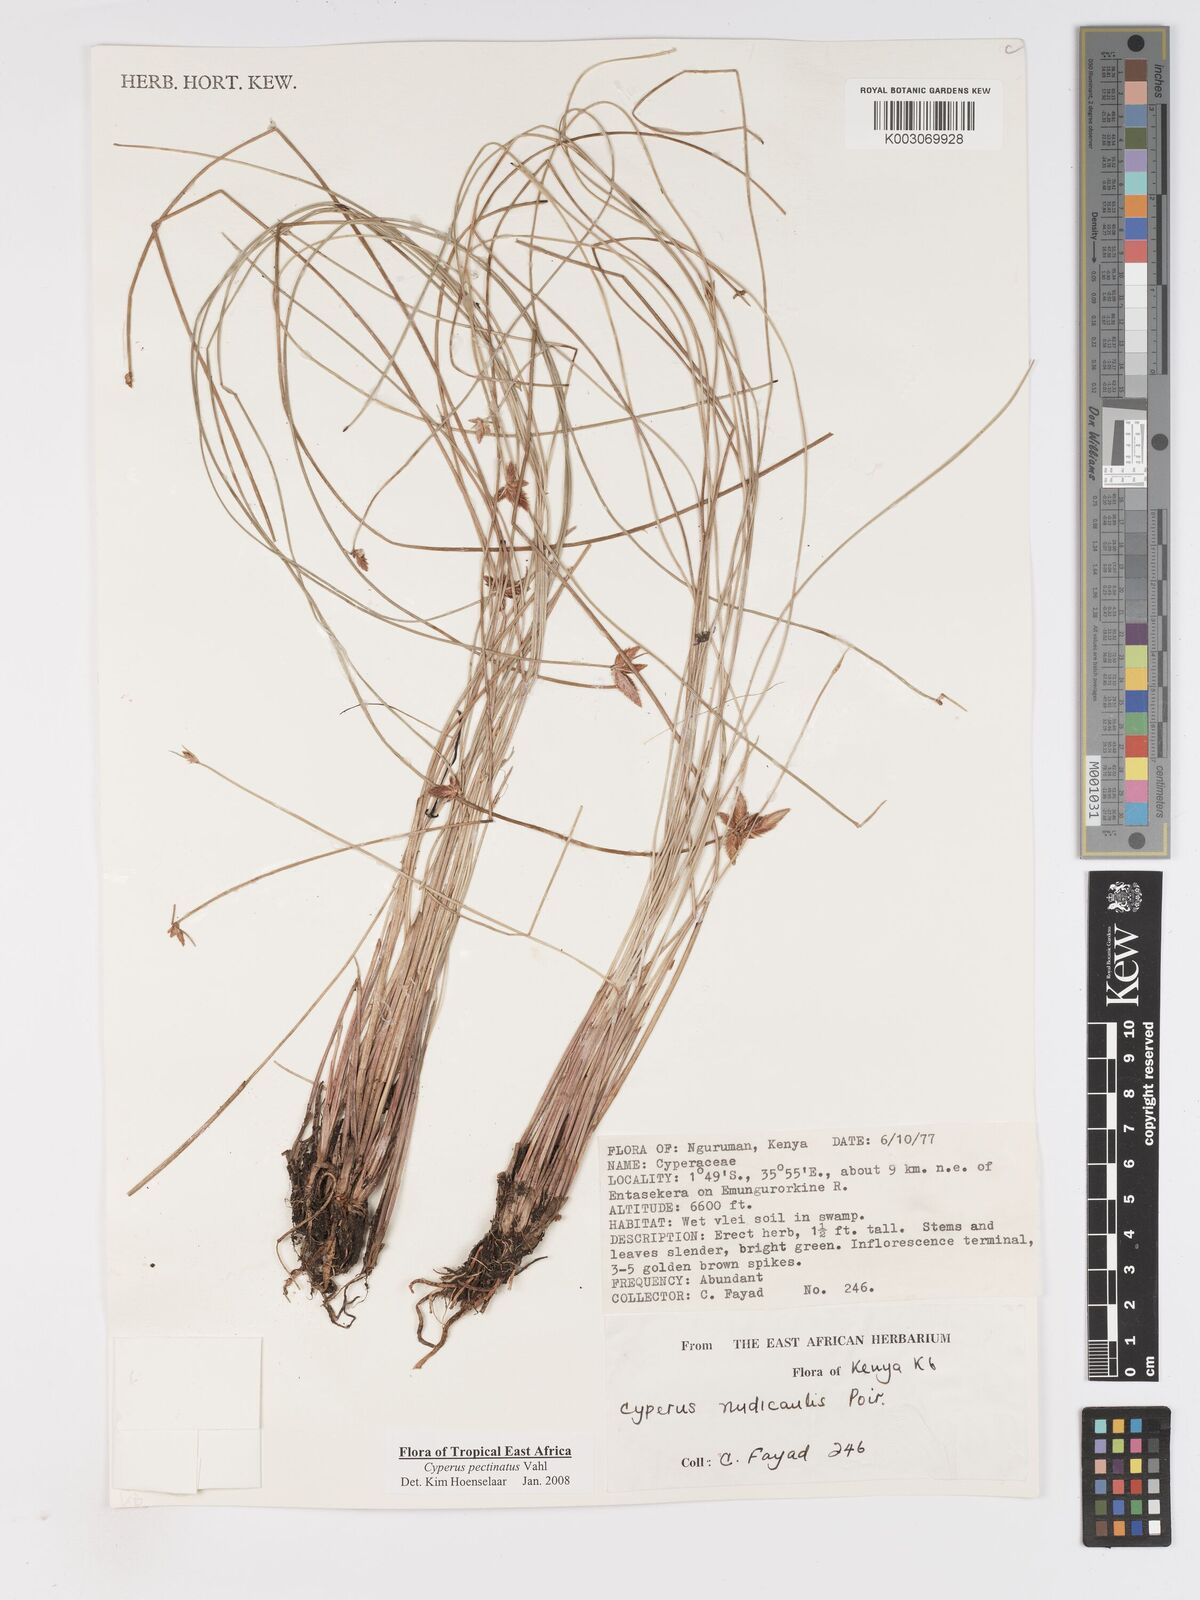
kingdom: Plantae
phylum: Tracheophyta
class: Liliopsida
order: Poales
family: Cyperaceae
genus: Cyperus
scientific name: Cyperus pectinatus
